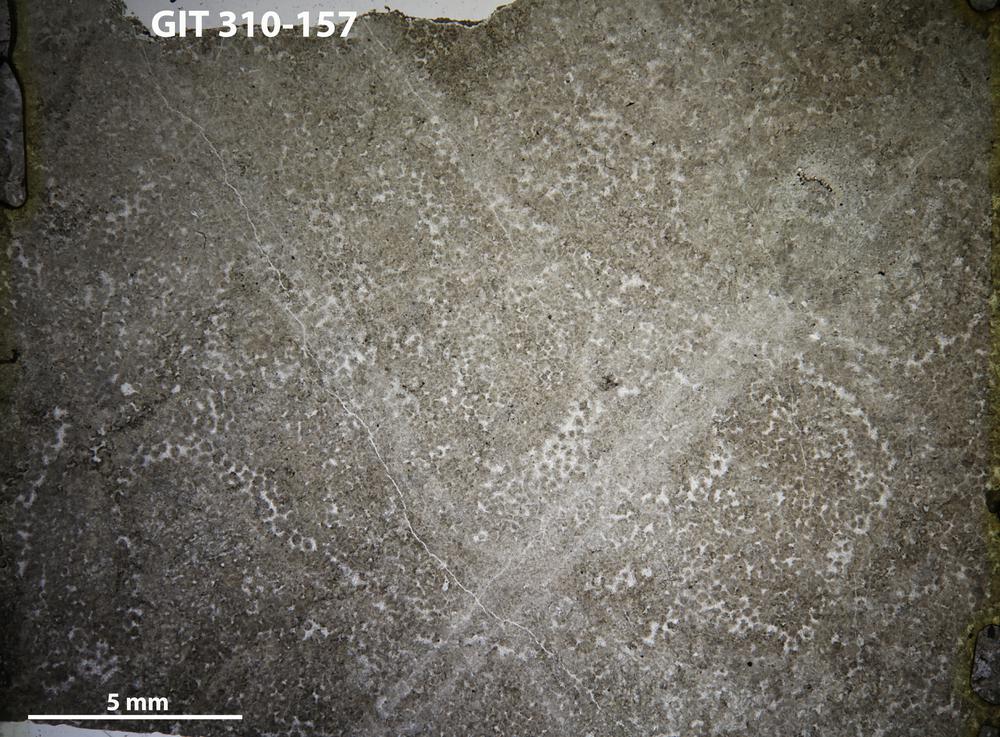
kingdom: Animalia
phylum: Porifera
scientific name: Porifera
